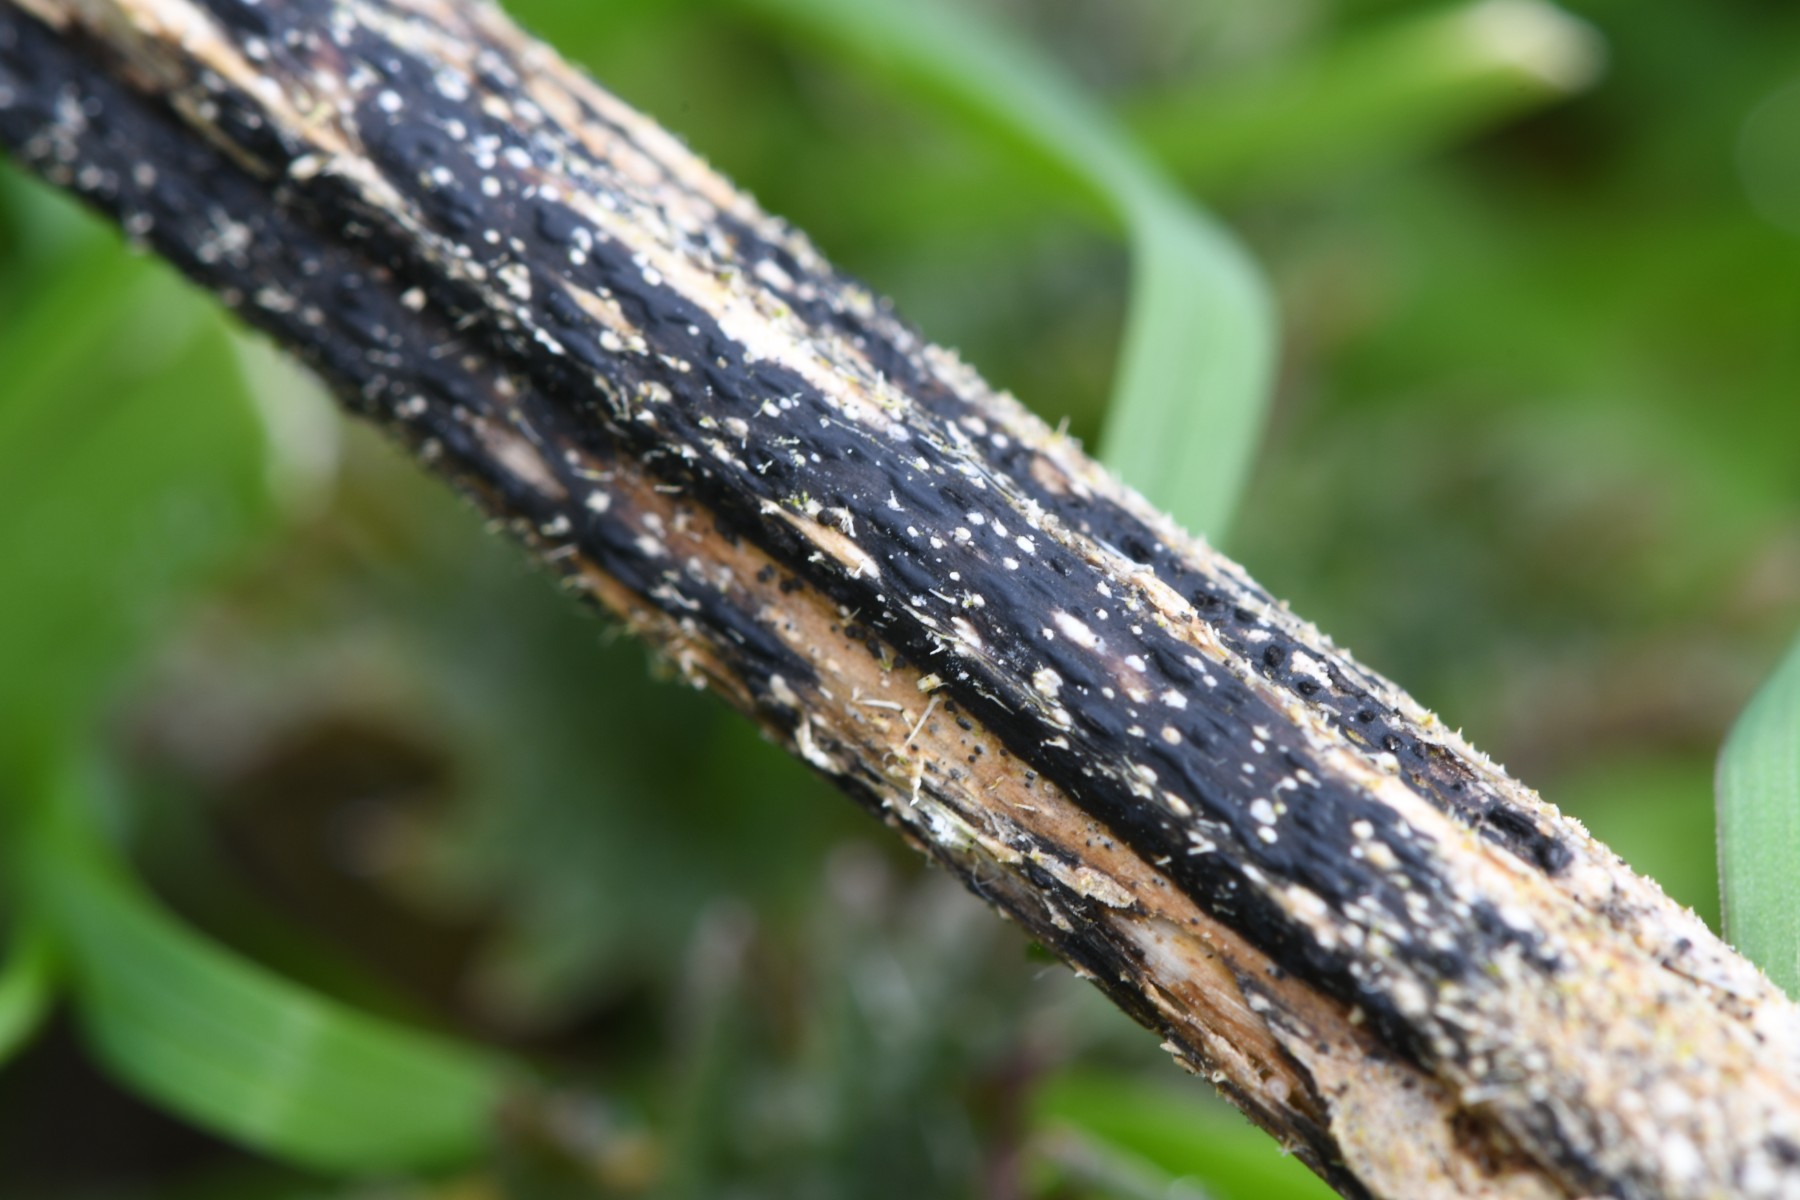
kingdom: Fungi
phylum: Ascomycota
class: Sordariomycetes
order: Diaporthales
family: Diaporthaceae
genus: Diaporthopsis
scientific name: Diaporthopsis urticae
